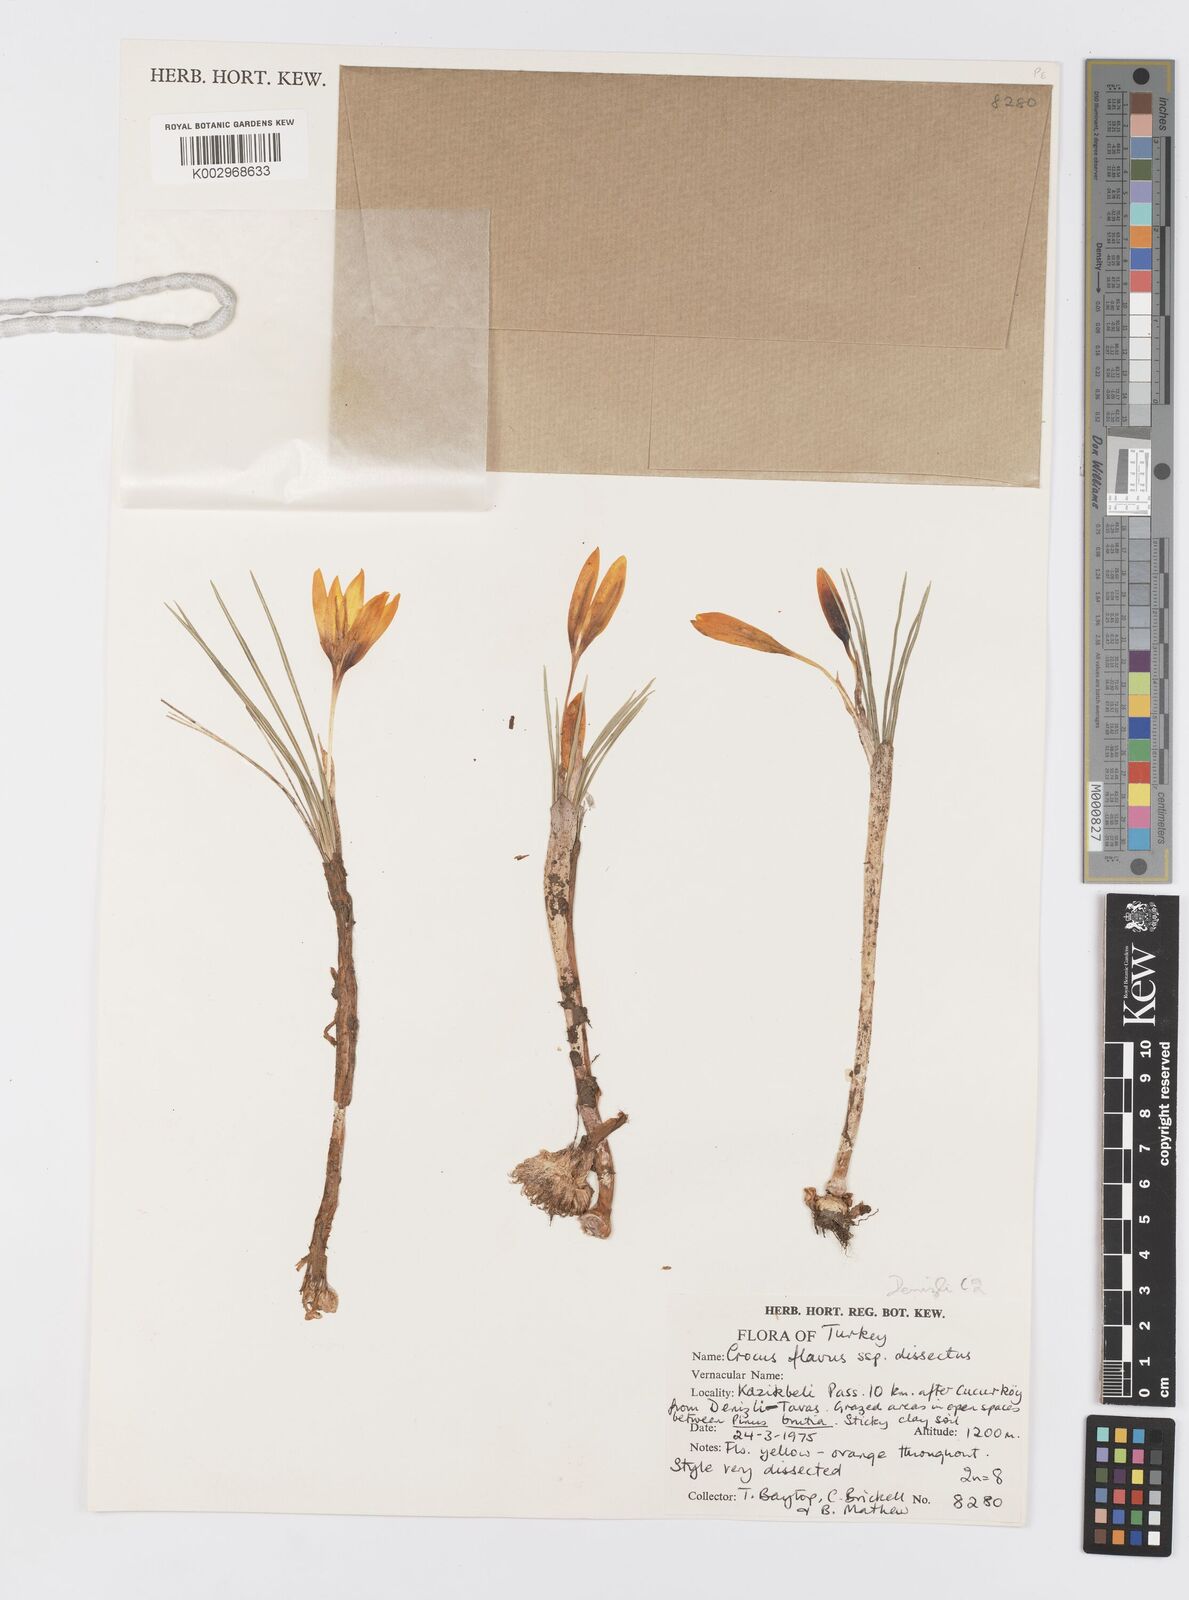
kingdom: Plantae
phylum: Tracheophyta
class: Liliopsida
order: Asparagales
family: Iridaceae
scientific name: Iridaceae
